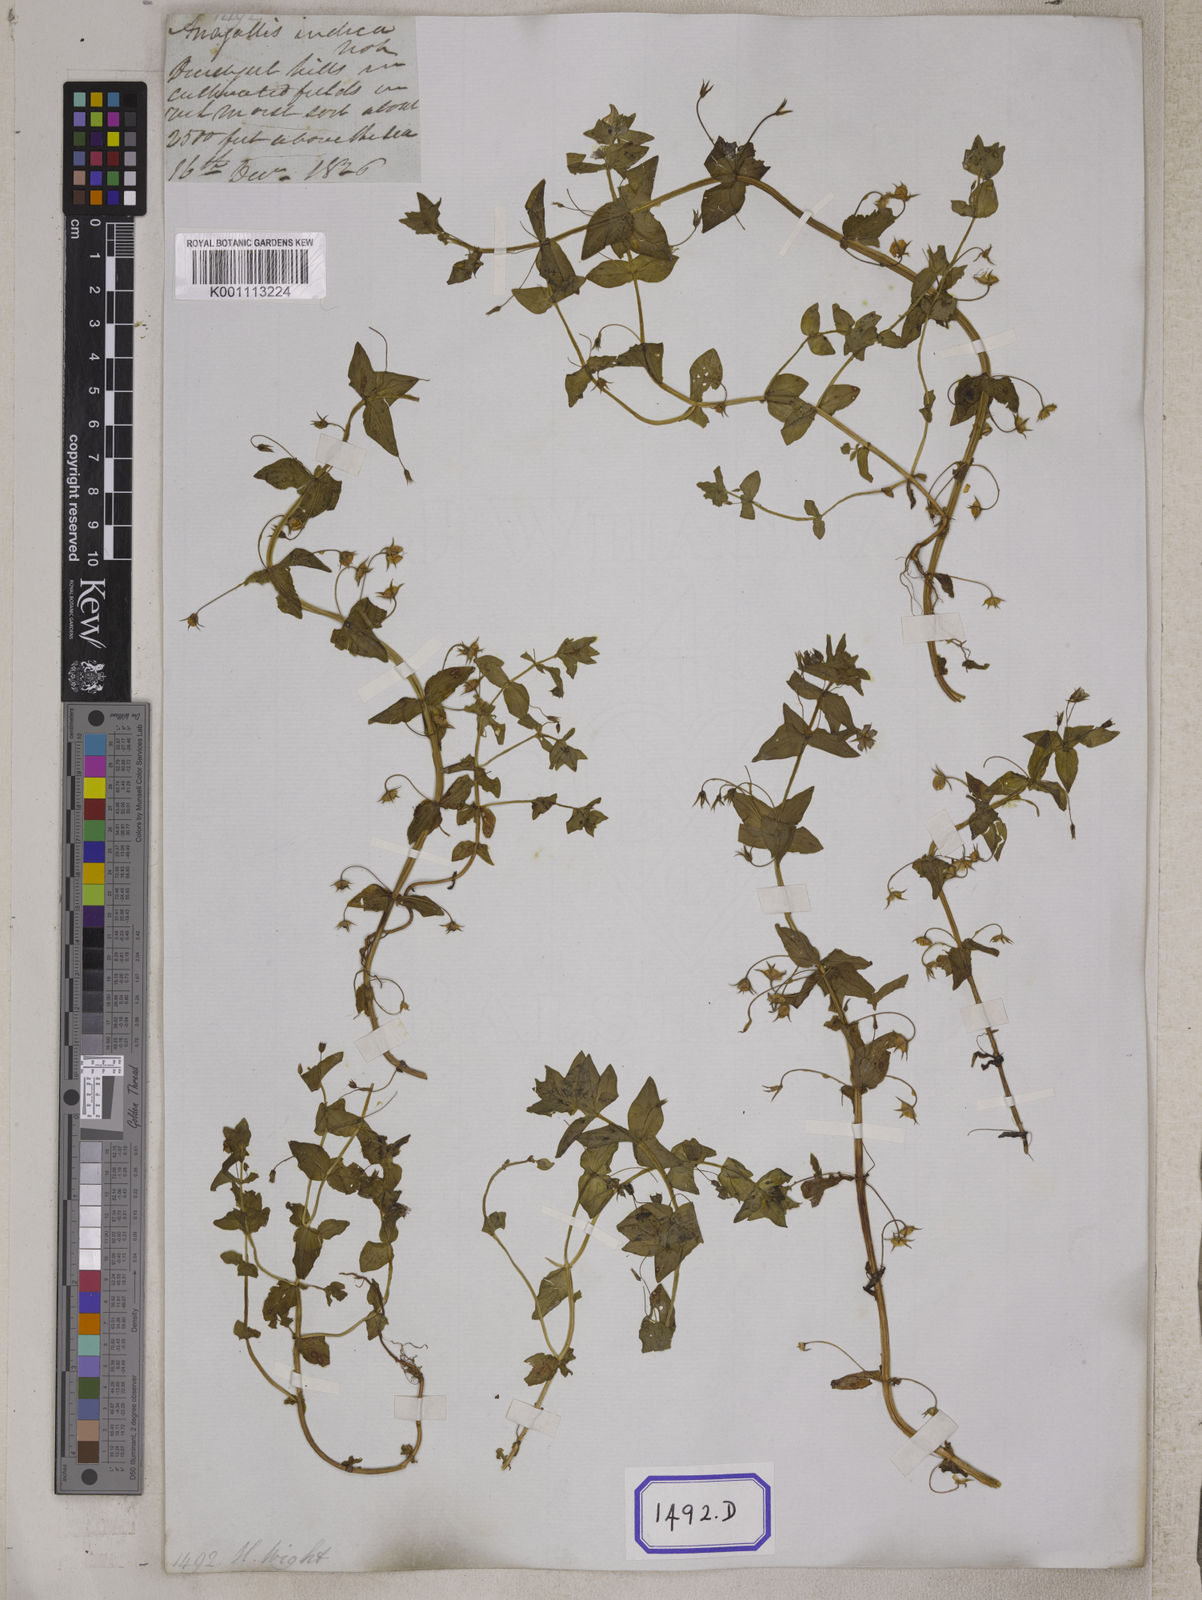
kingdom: Plantae
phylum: Tracheophyta
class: Magnoliopsida
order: Ericales
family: Primulaceae
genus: Lysimachia
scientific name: Lysimachia arvensis
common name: Scarlet pimpernel
